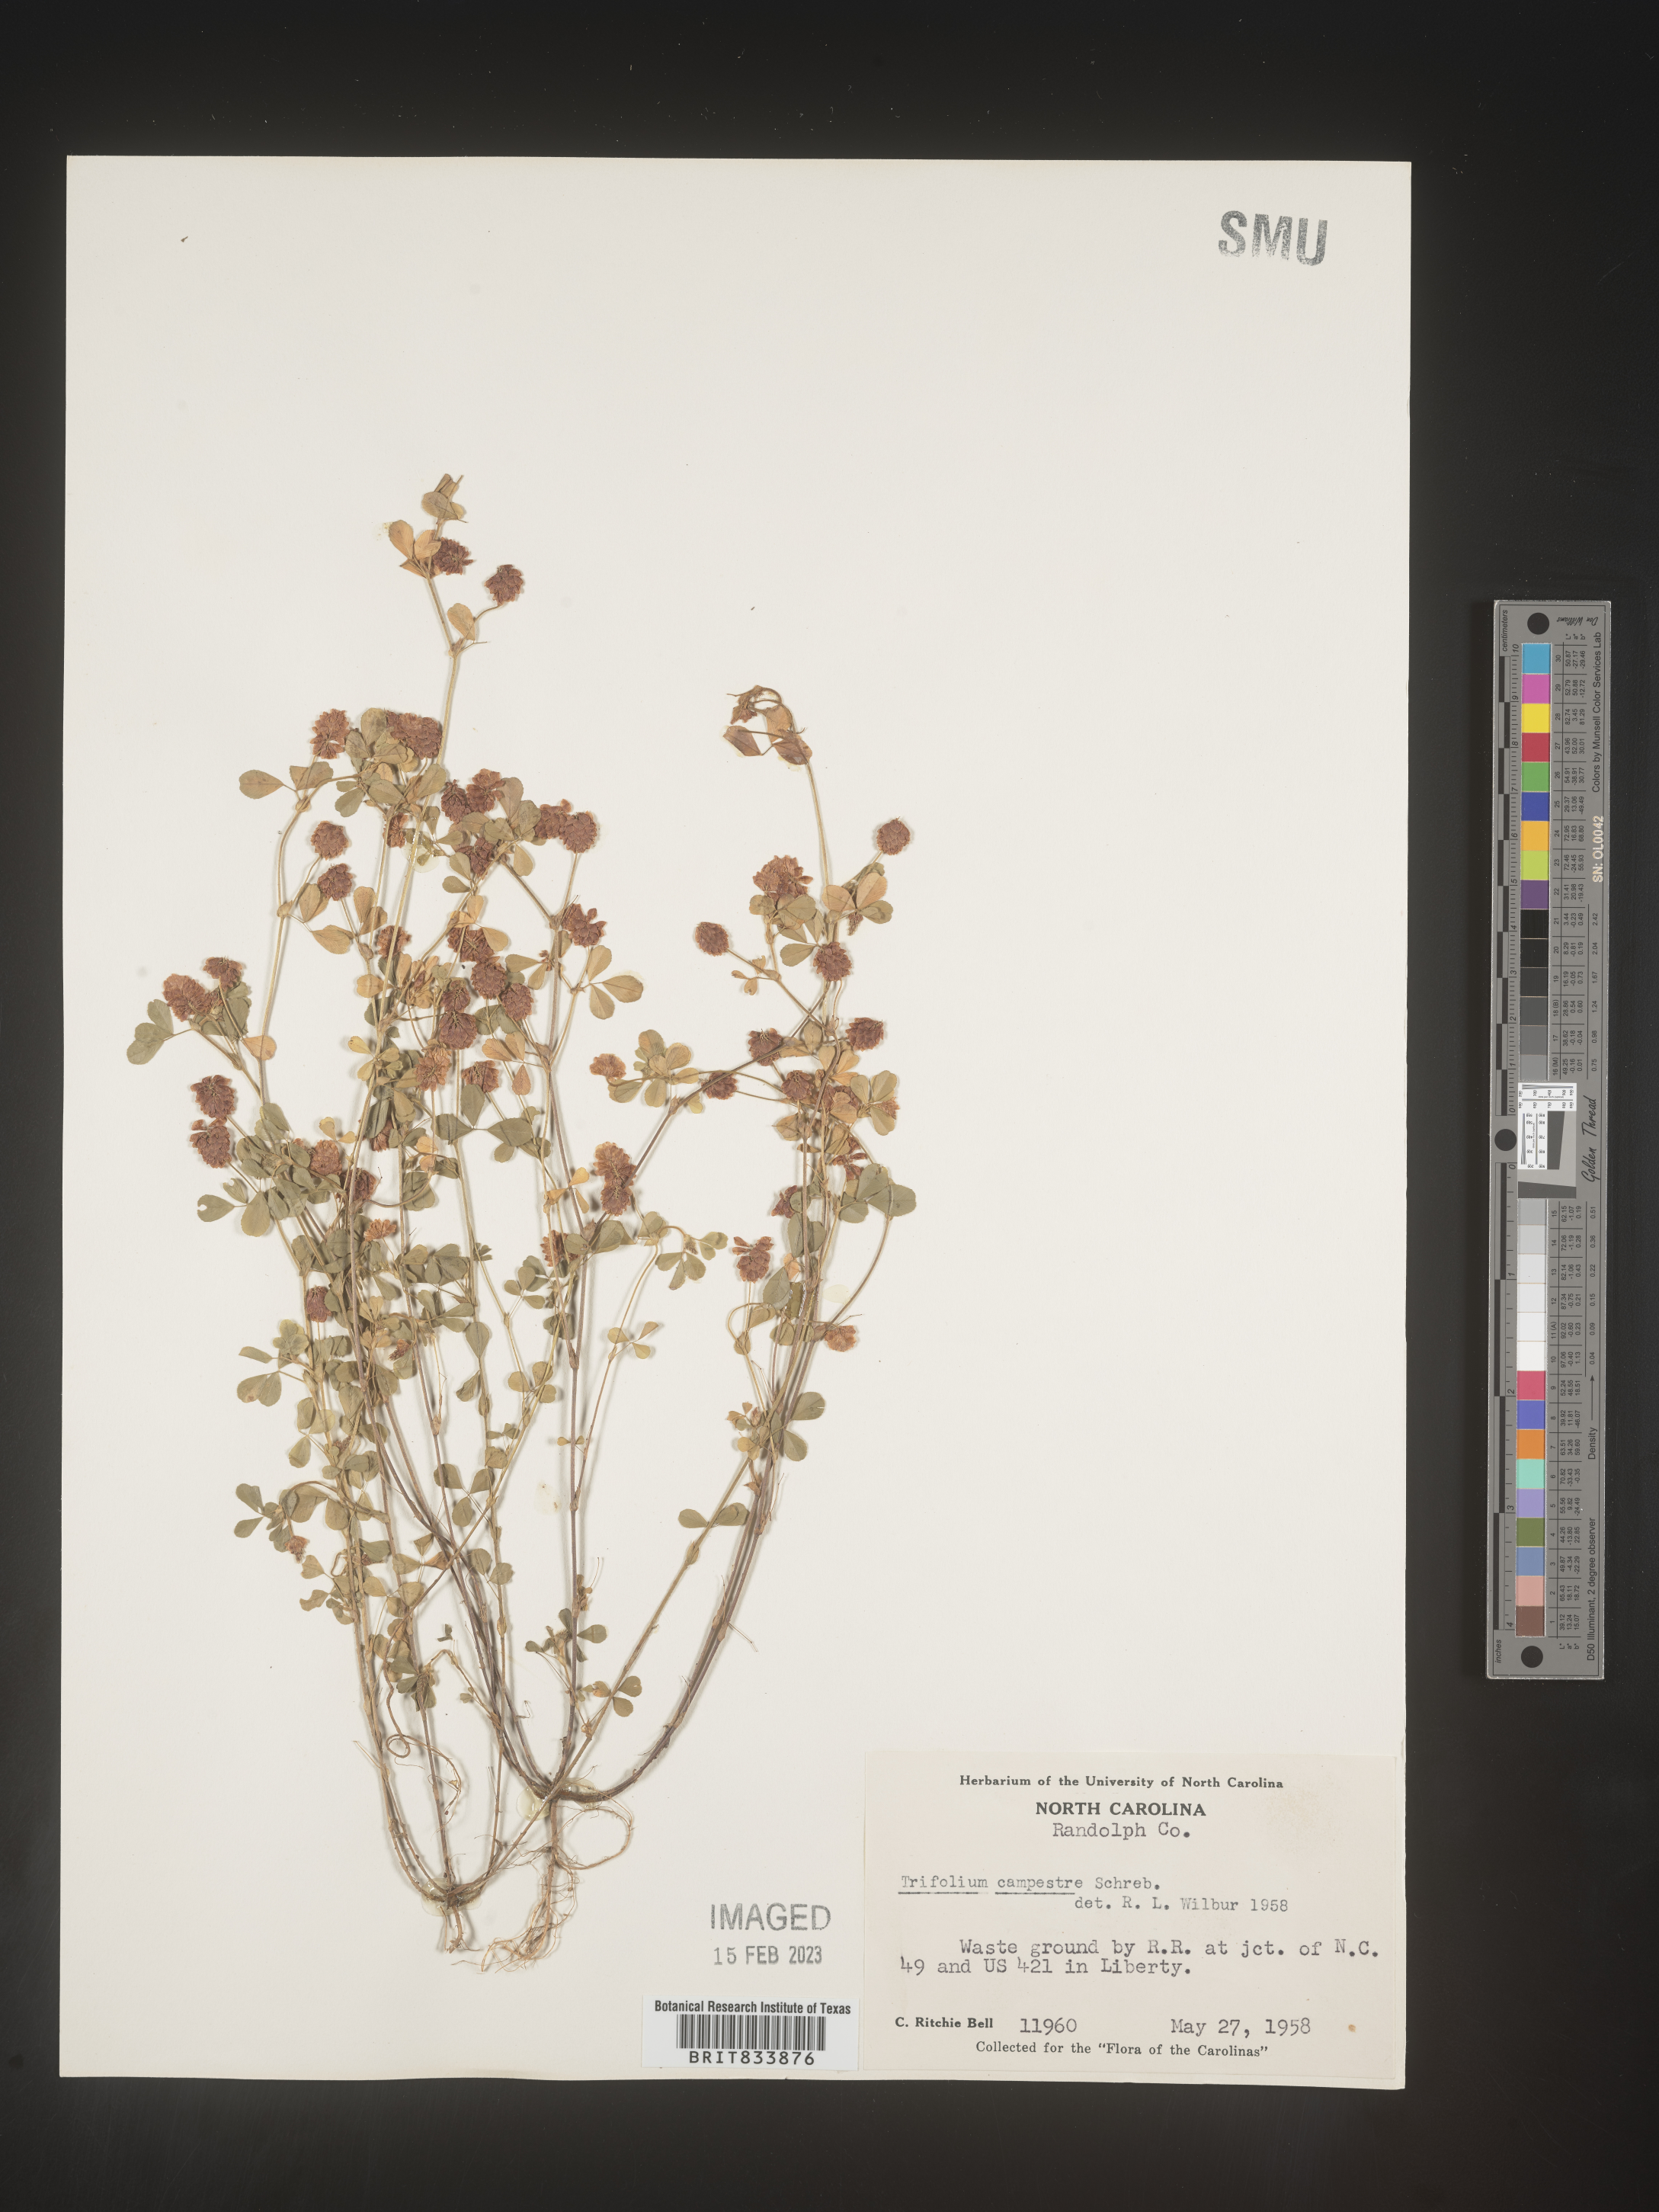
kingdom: Plantae
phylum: Tracheophyta
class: Magnoliopsida
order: Fabales
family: Fabaceae
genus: Trifolium
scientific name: Trifolium campestre
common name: Field clover
